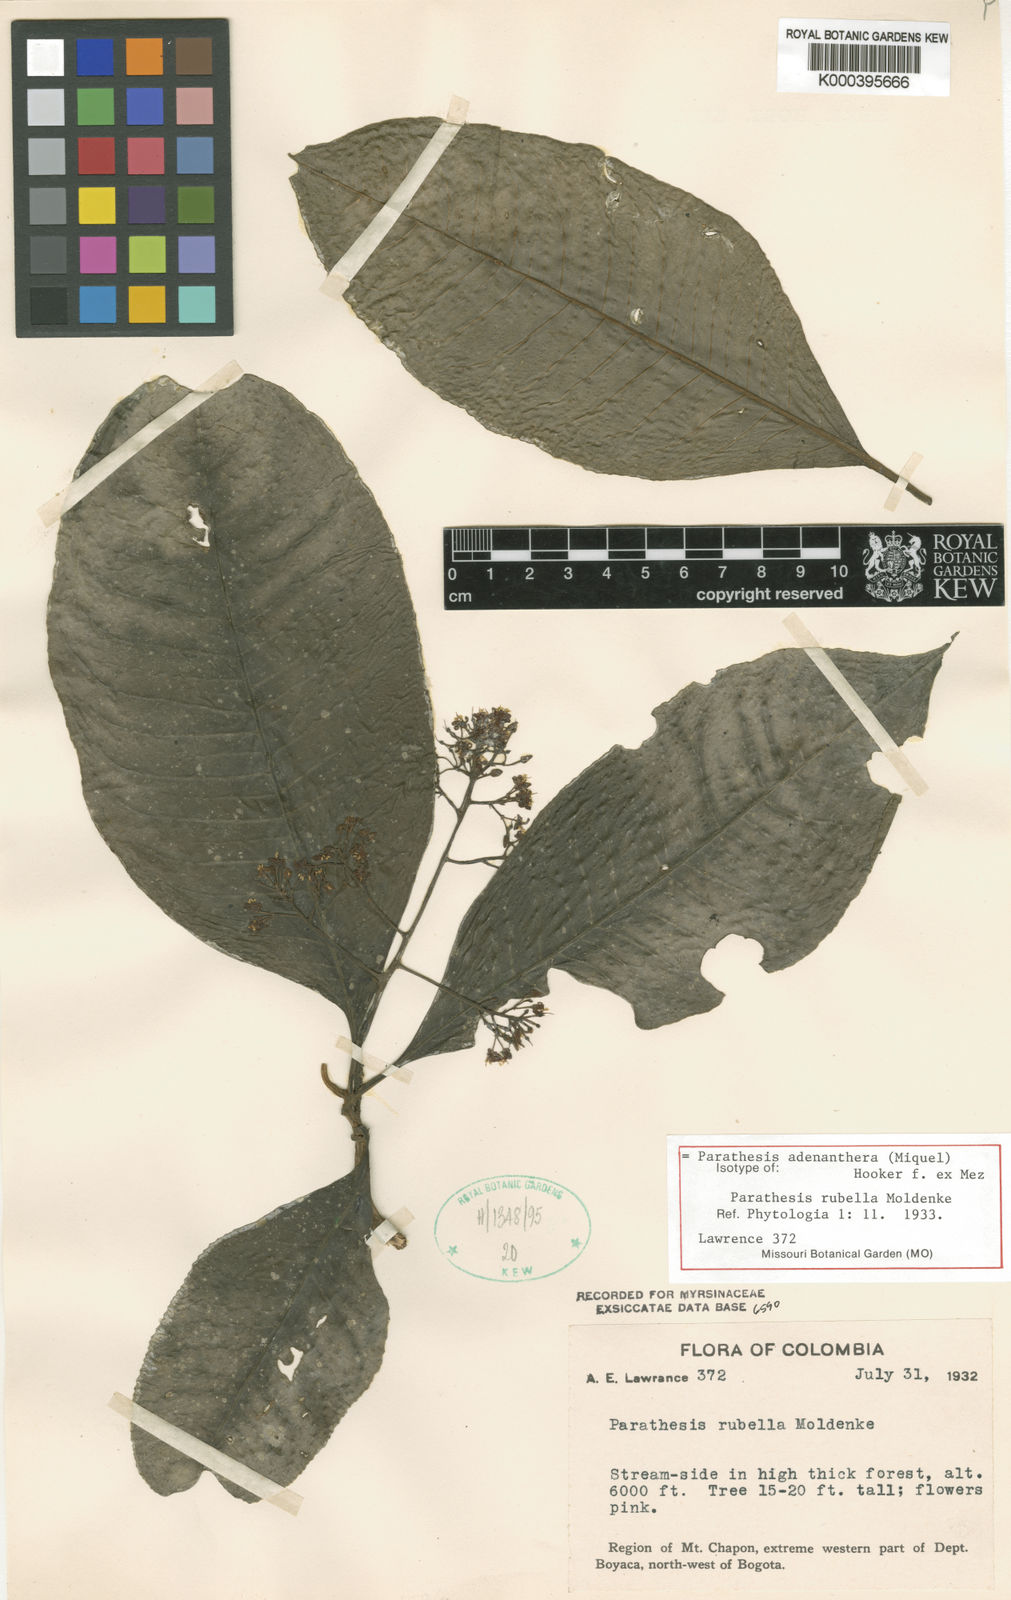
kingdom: Plantae
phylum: Tracheophyta
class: Magnoliopsida
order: Ericales
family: Primulaceae
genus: Parathesis
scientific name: Parathesis adenanthera
